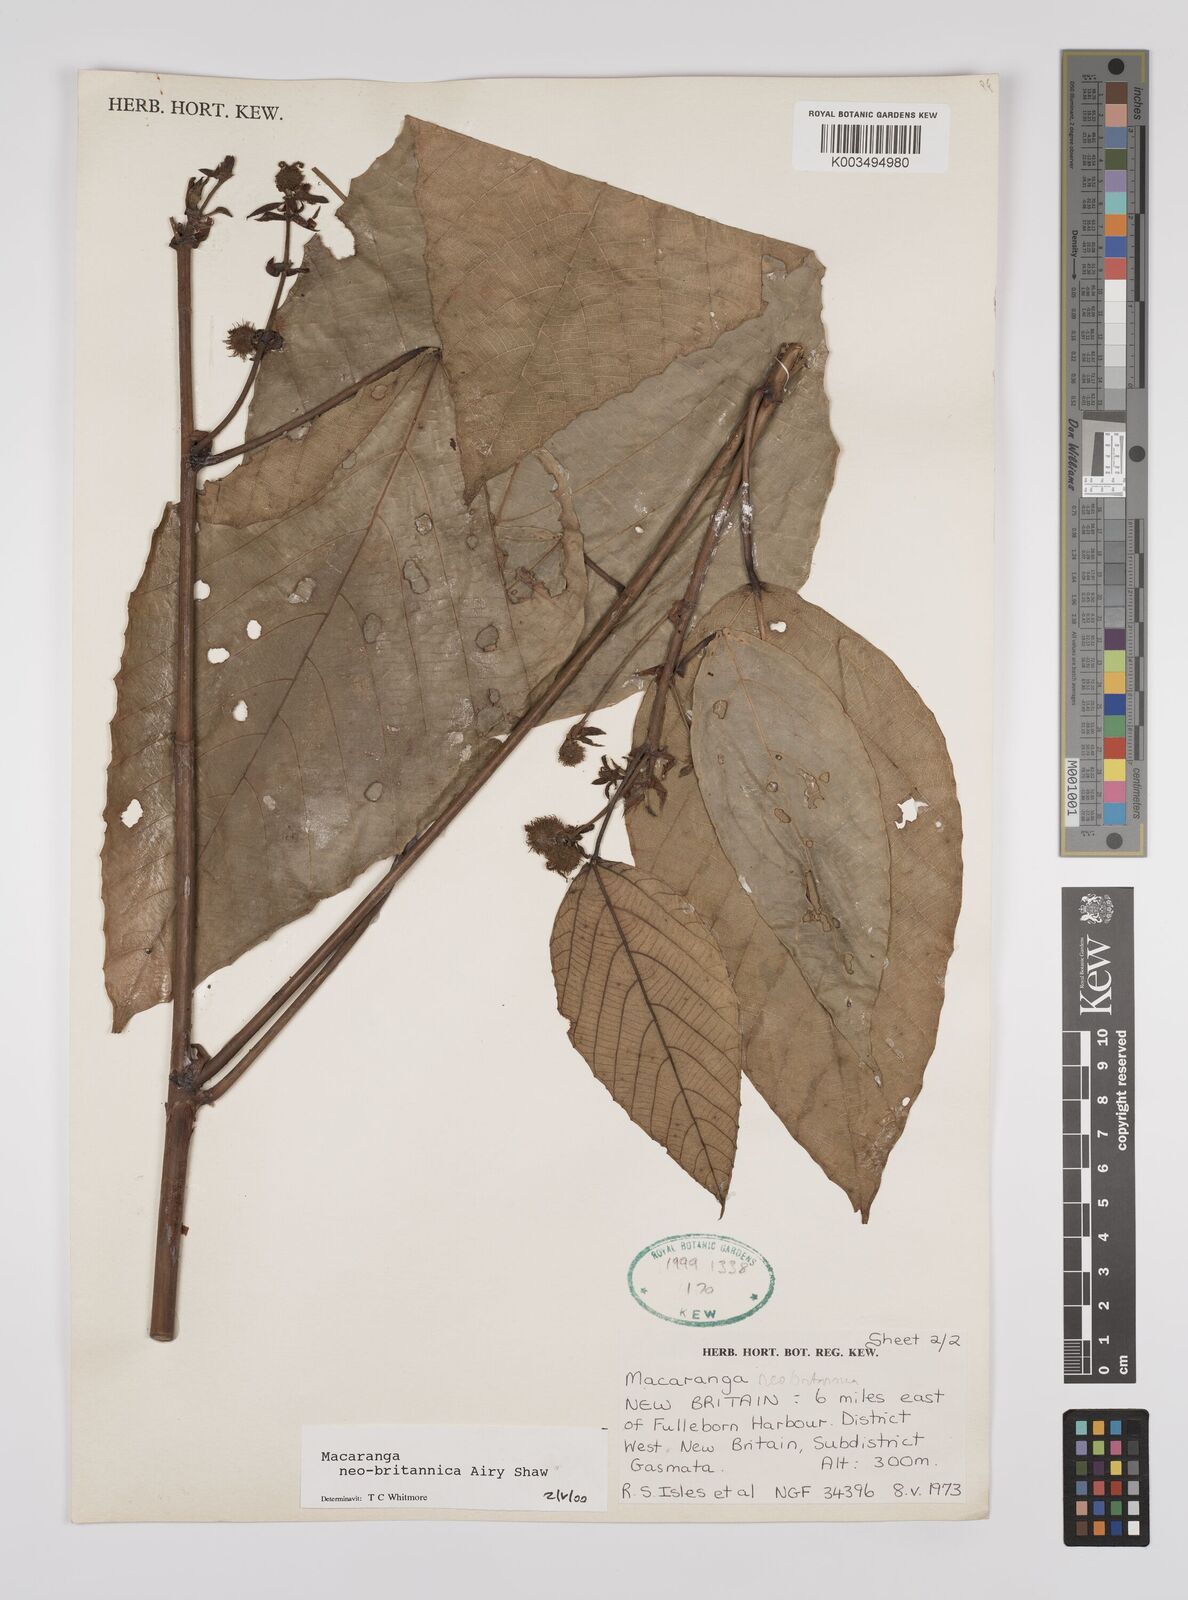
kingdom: Plantae
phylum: Tracheophyta
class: Magnoliopsida
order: Malpighiales
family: Euphorbiaceae
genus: Macaranga
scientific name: Macaranga neobritannica
